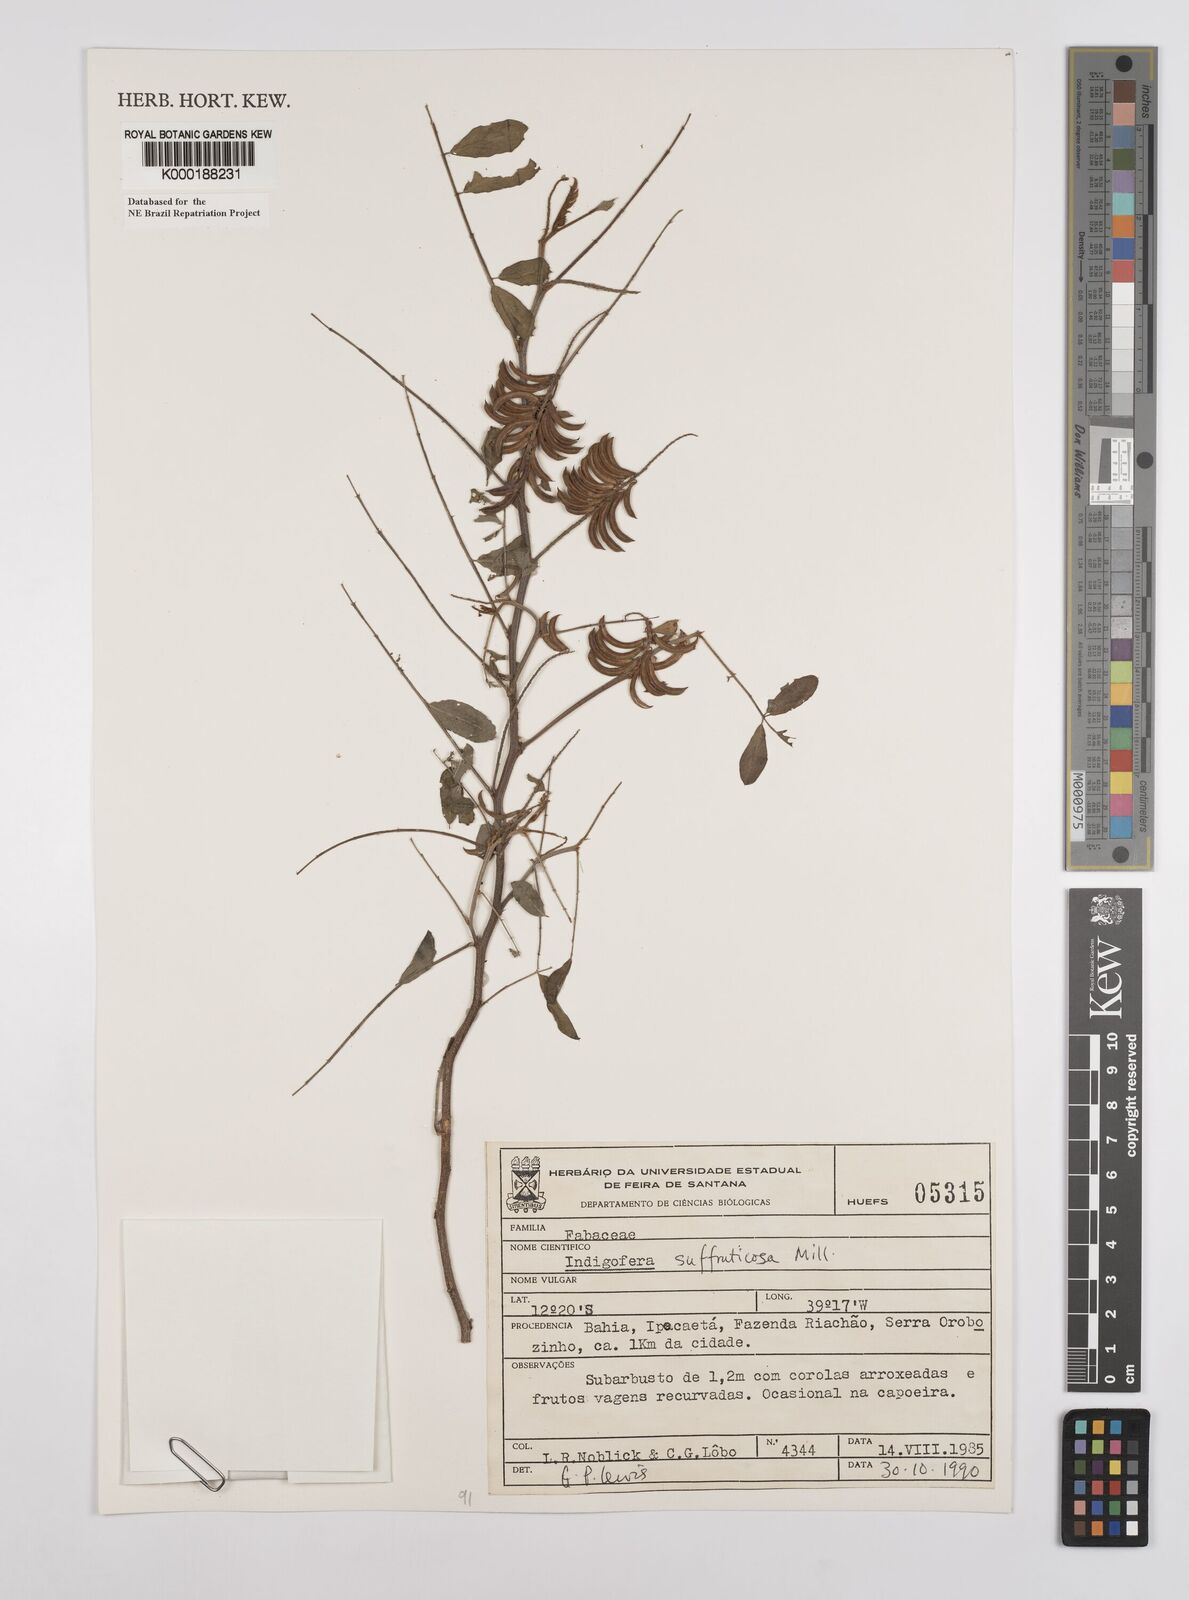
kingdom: Plantae
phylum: Tracheophyta
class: Magnoliopsida
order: Fabales
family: Fabaceae
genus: Indigofera
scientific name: Indigofera suffruticosa
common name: Anil de pasto
